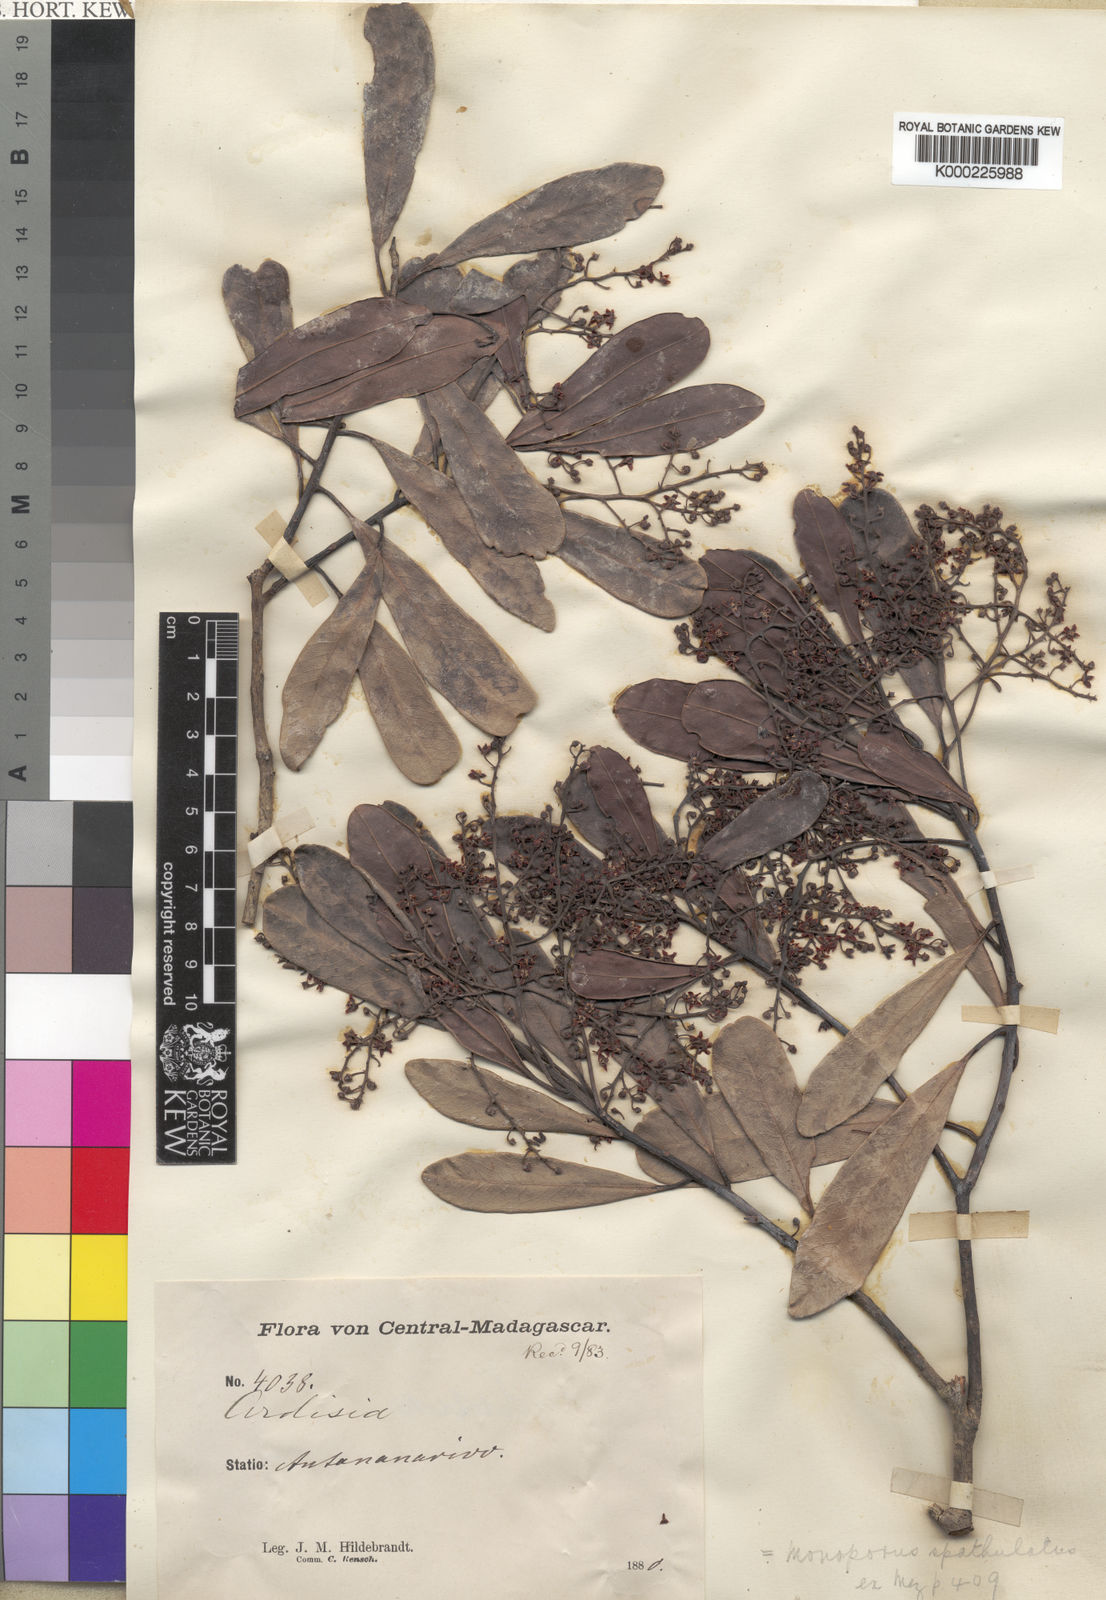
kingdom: Plantae
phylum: Tracheophyta
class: Magnoliopsida
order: Ericales
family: Primulaceae
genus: Monoporus
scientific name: Monoporus spathulatus
